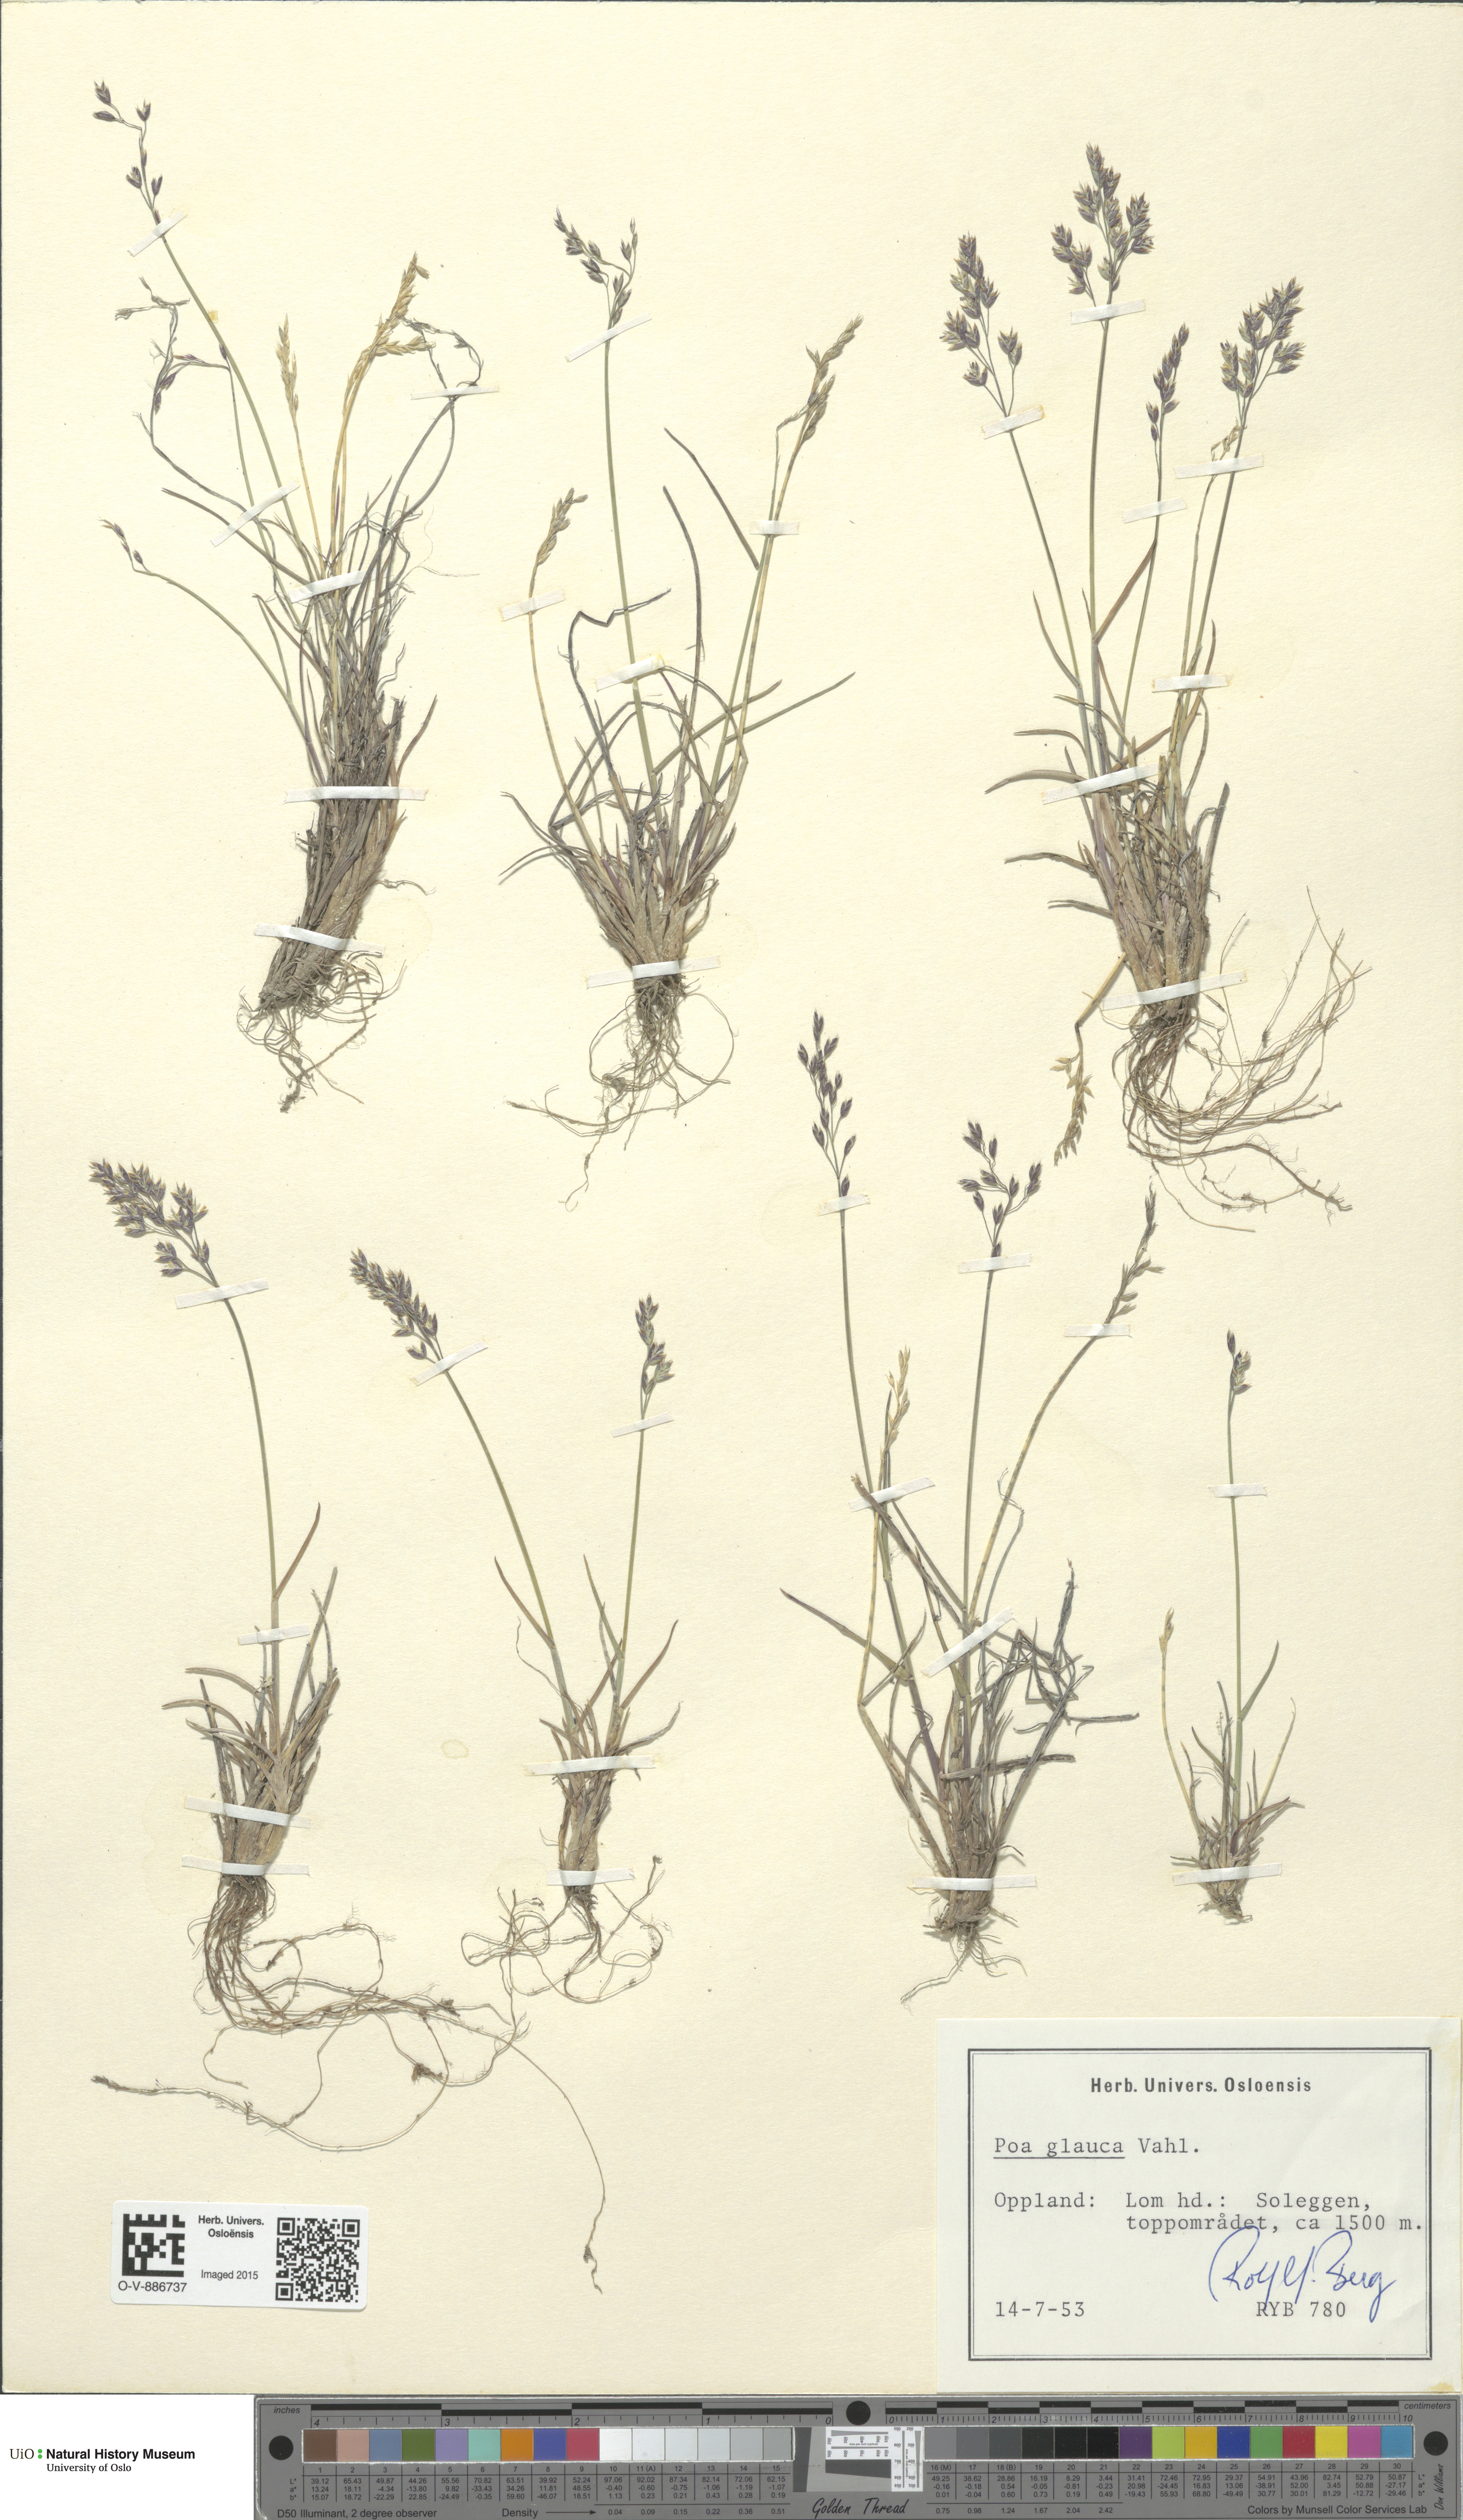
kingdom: Plantae
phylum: Tracheophyta
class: Liliopsida
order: Poales
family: Poaceae
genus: Poa
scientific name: Poa glauca
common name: Glaucous bluegrass
